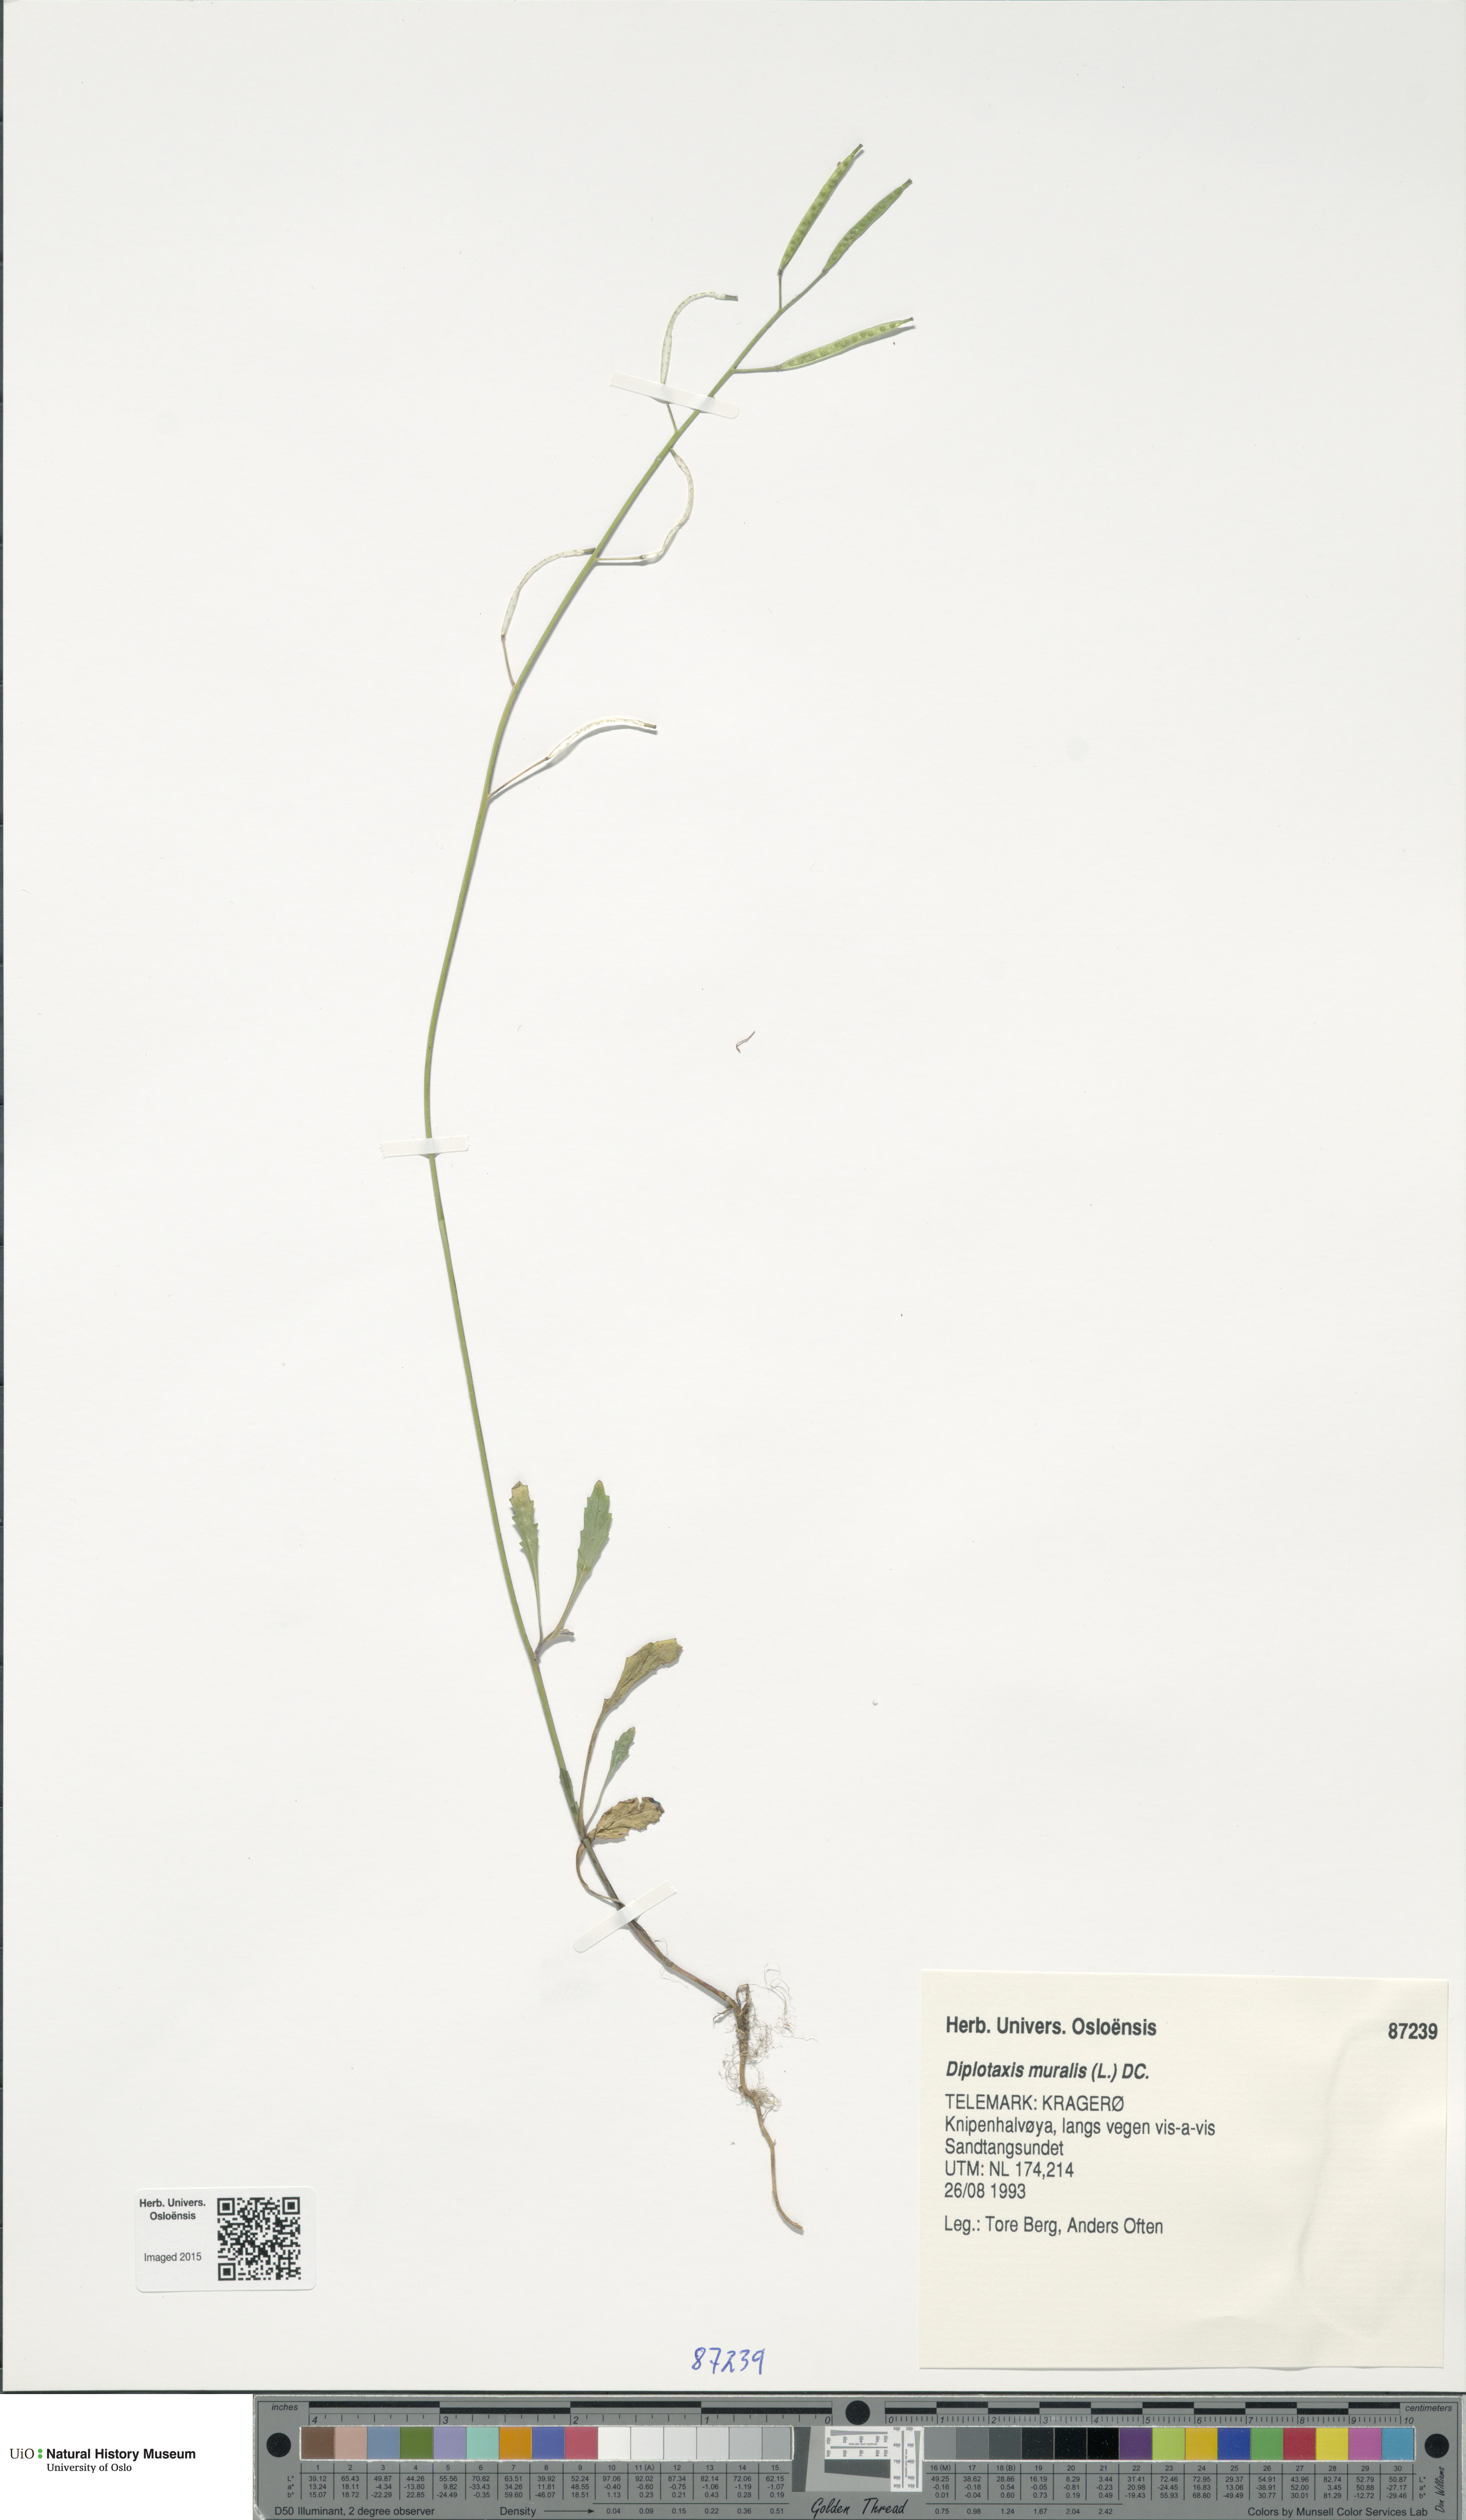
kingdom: Plantae
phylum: Tracheophyta
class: Magnoliopsida
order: Brassicales
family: Brassicaceae
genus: Diplotaxis
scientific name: Diplotaxis muralis
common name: Annual wall-rocket
